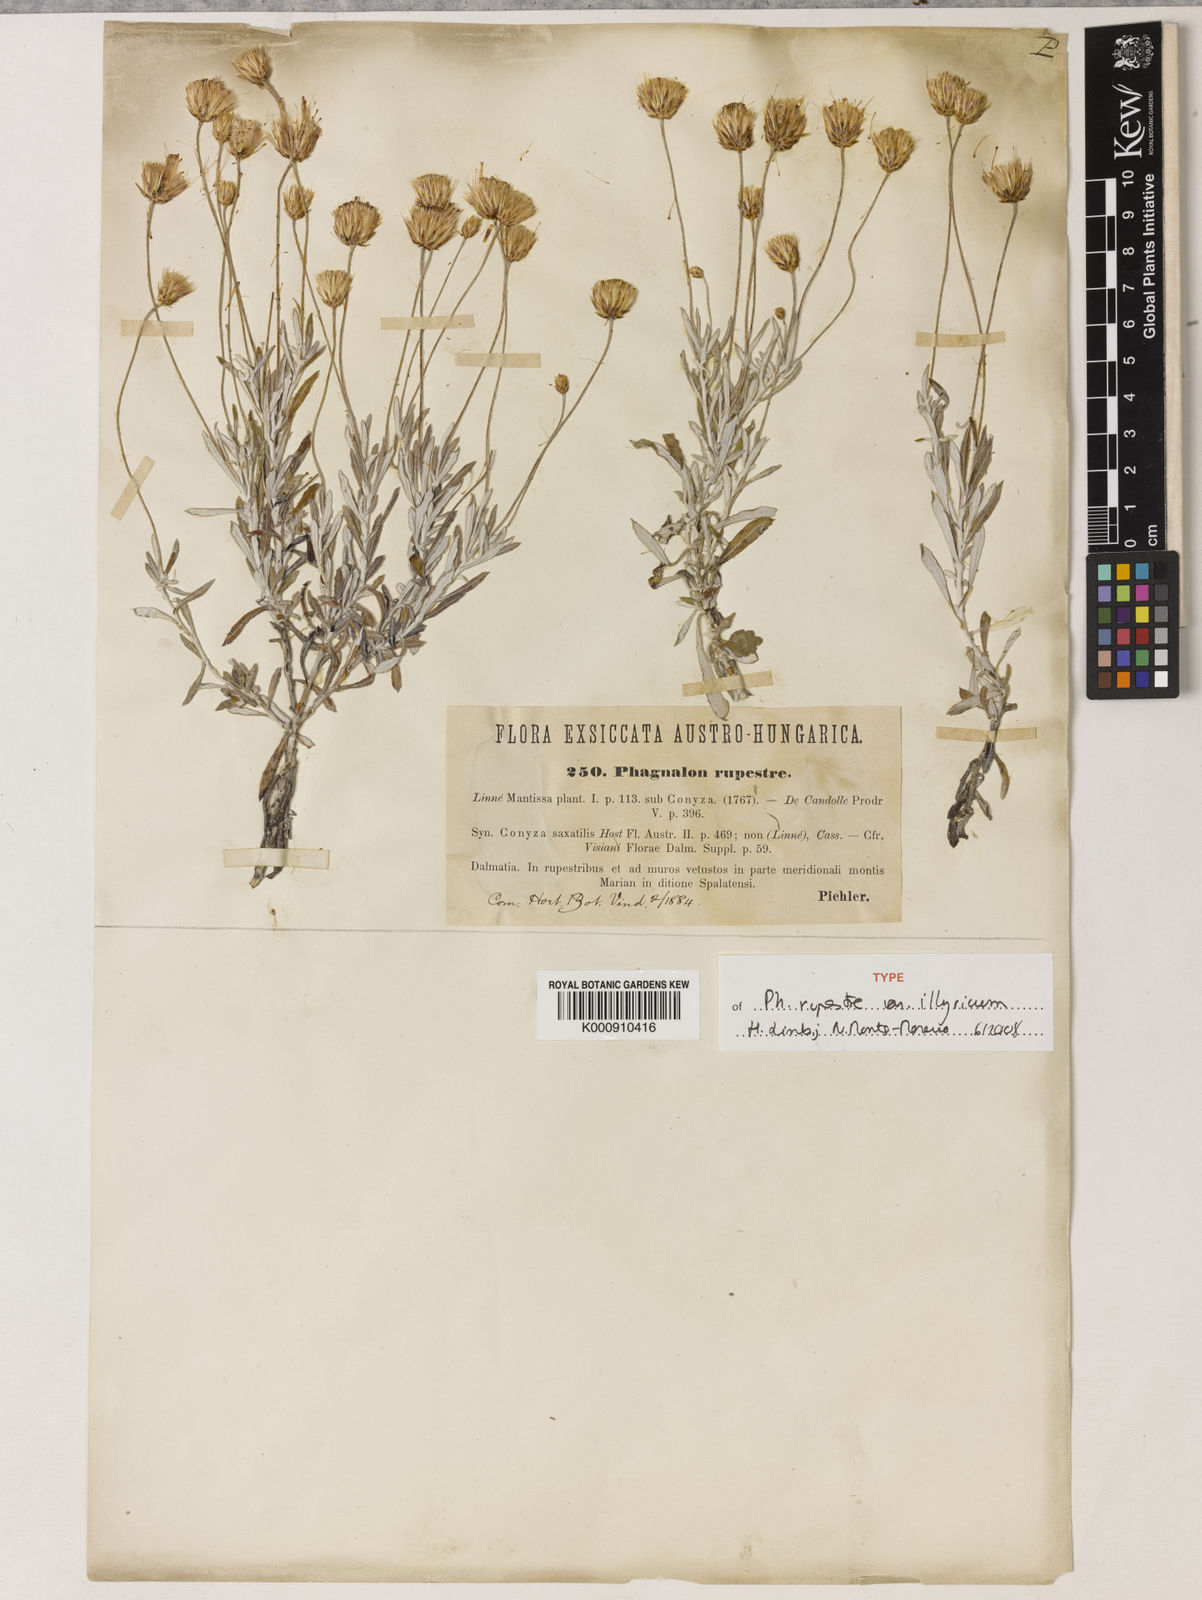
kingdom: Plantae
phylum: Tracheophyta
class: Magnoliopsida
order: Asterales
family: Asteraceae
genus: Phagnalon
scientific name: Phagnalon rupestre
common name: Rock phagnalon
